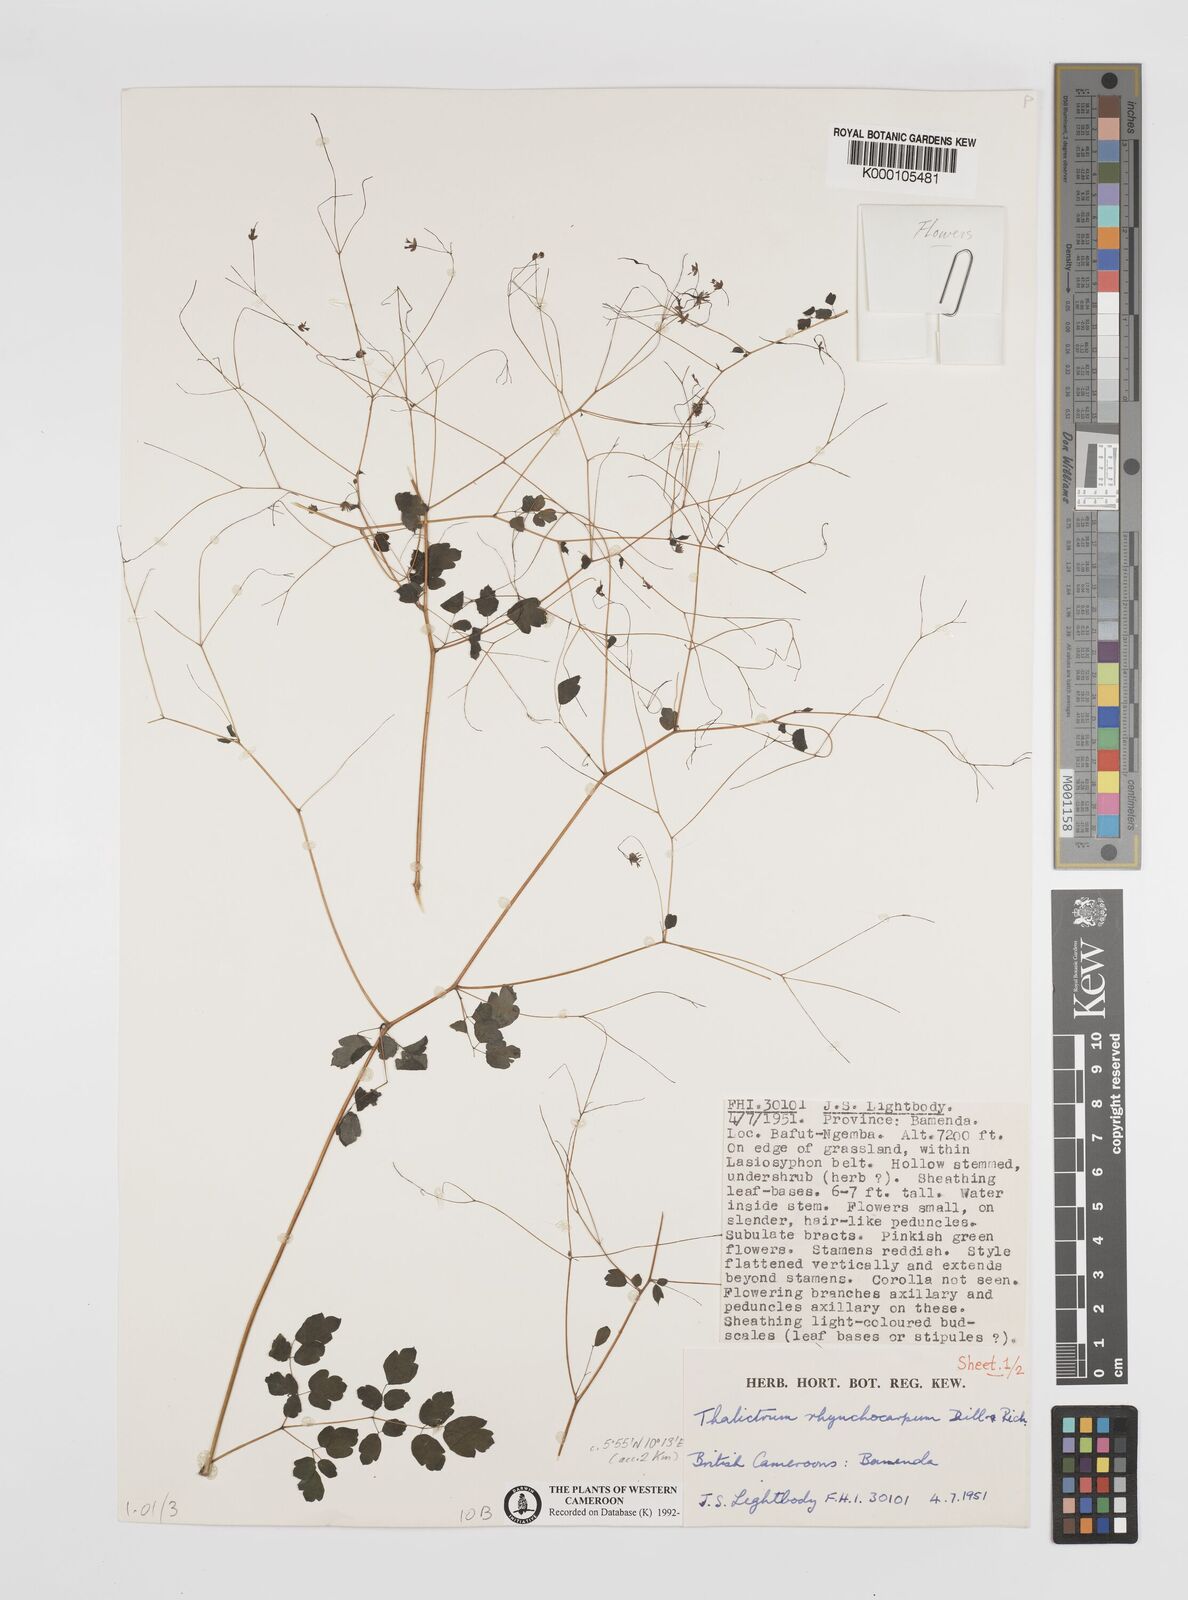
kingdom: Plantae
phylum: Tracheophyta
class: Magnoliopsida
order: Ranunculales
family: Ranunculaceae
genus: Thalictrum
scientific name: Thalictrum
